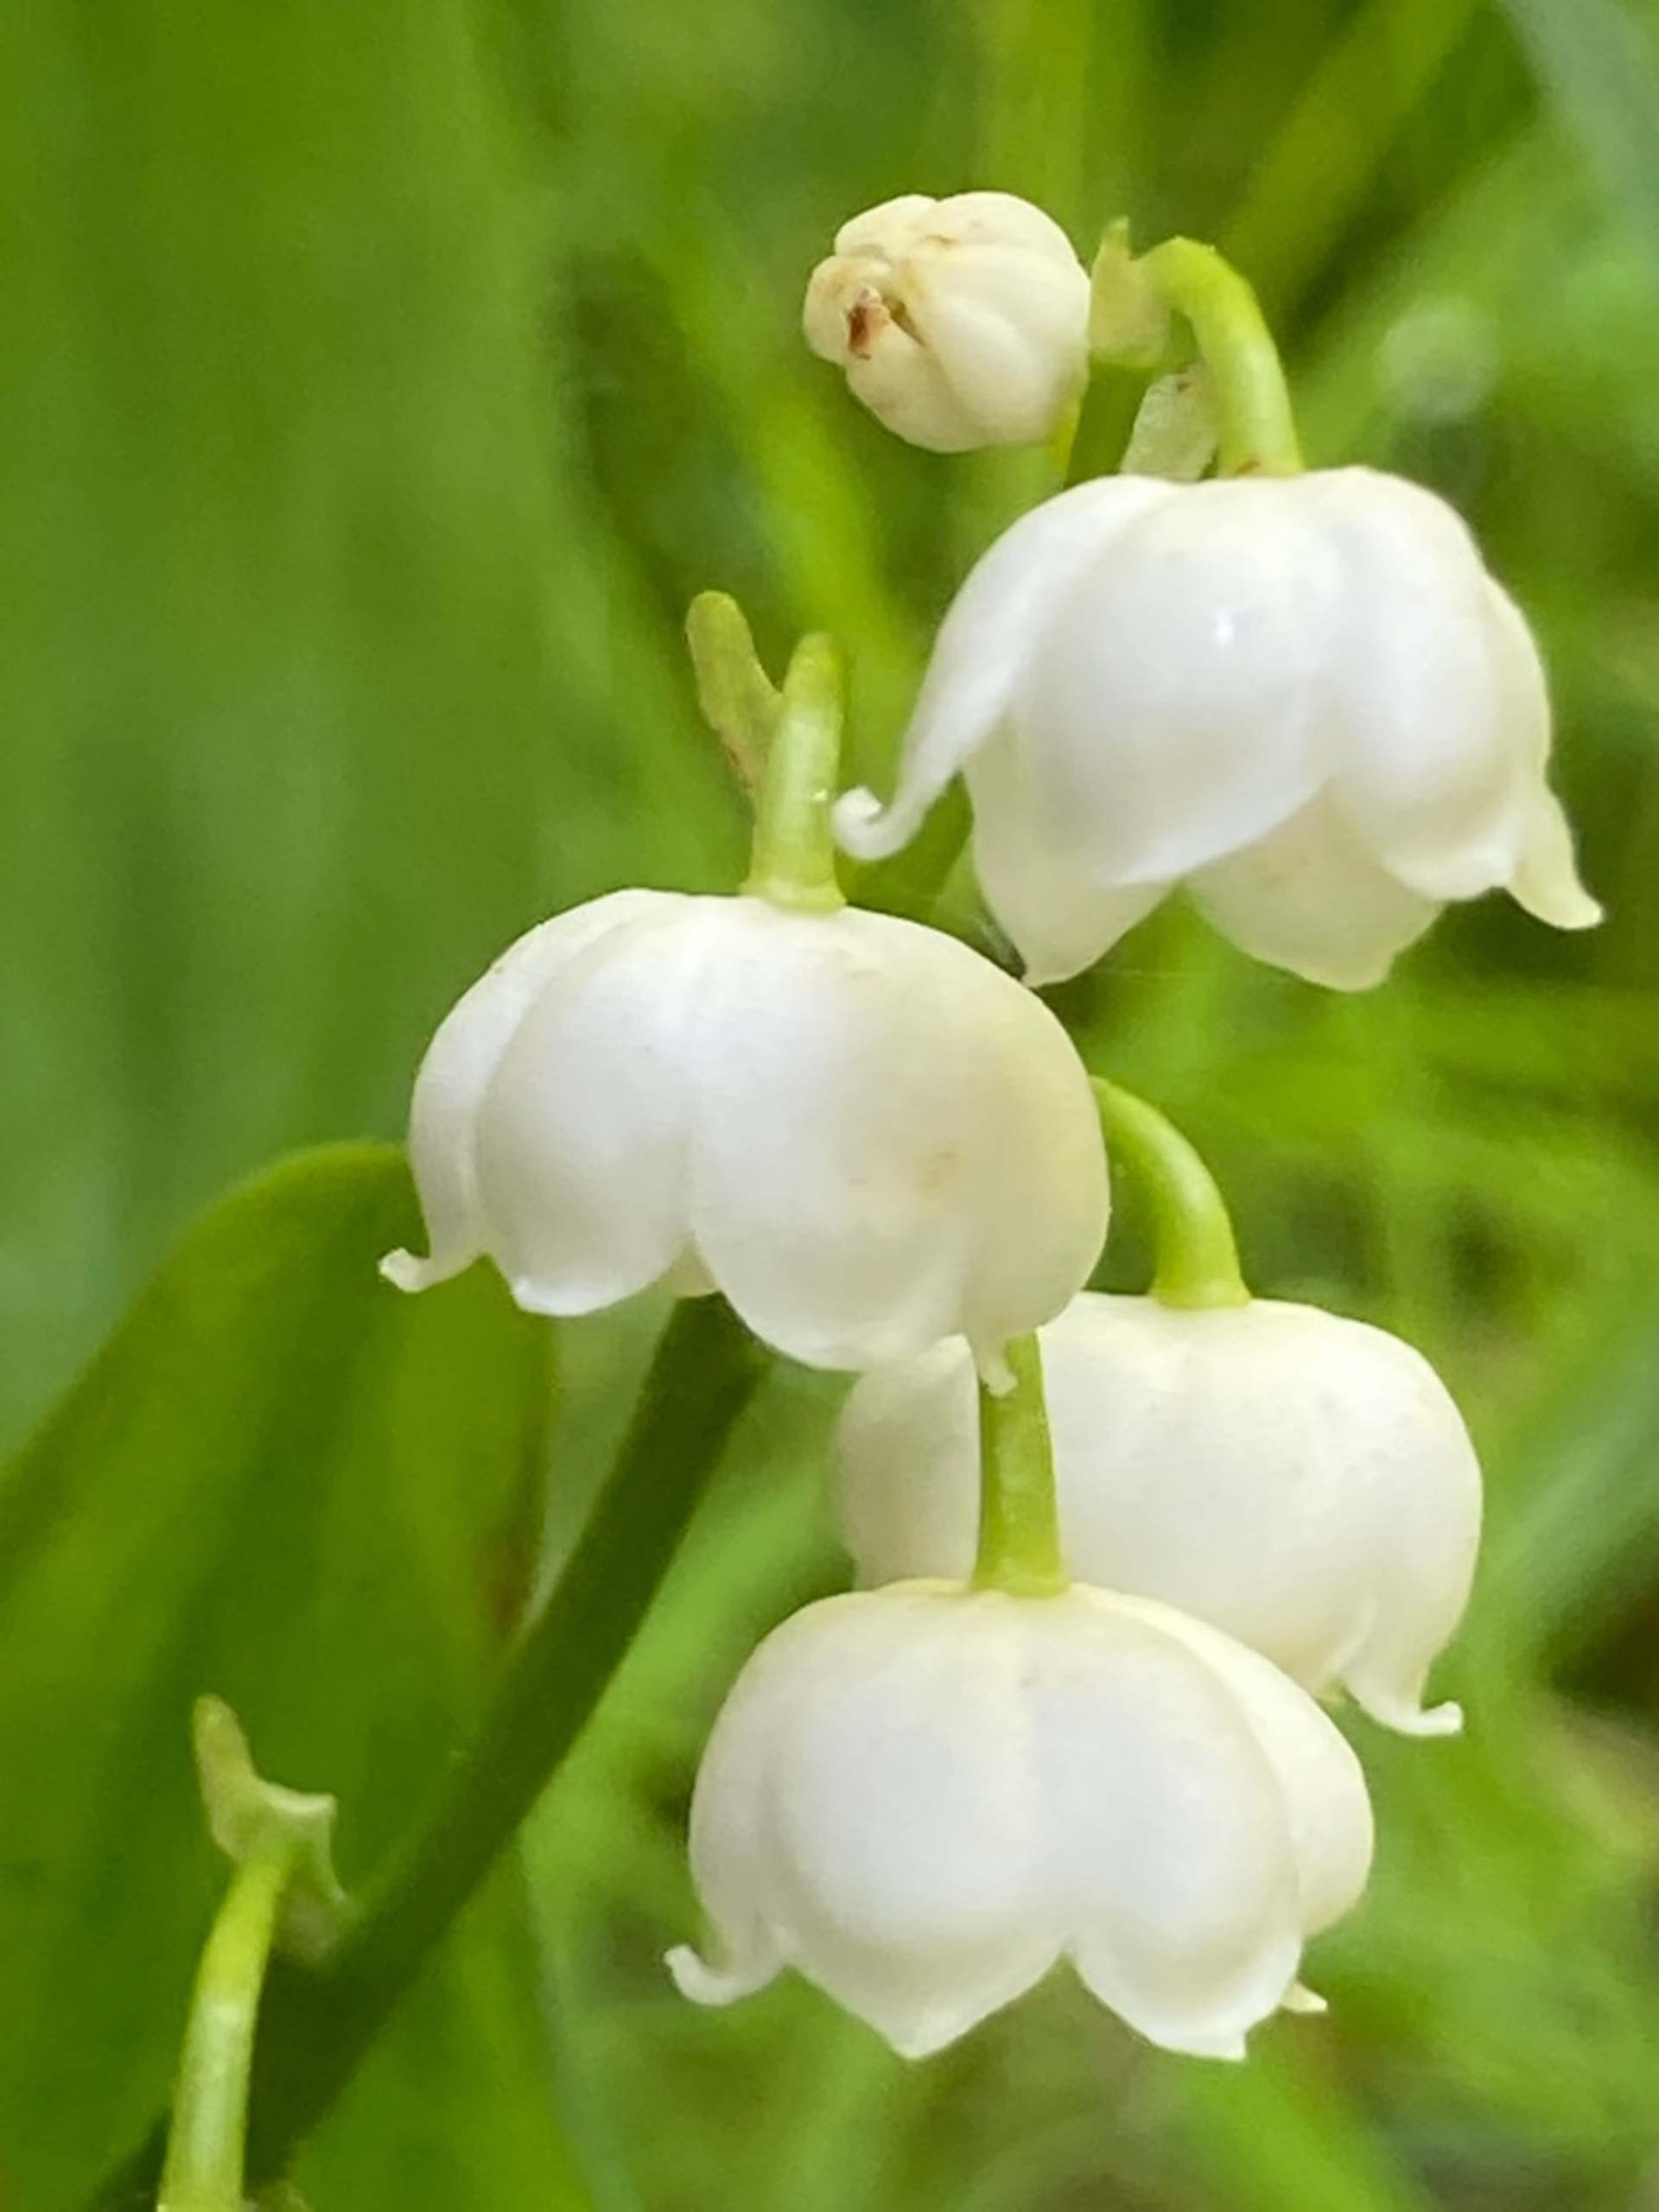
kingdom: Plantae
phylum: Tracheophyta
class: Liliopsida
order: Asparagales
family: Asparagaceae
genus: Convallaria
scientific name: Convallaria majalis
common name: Liljekonval
